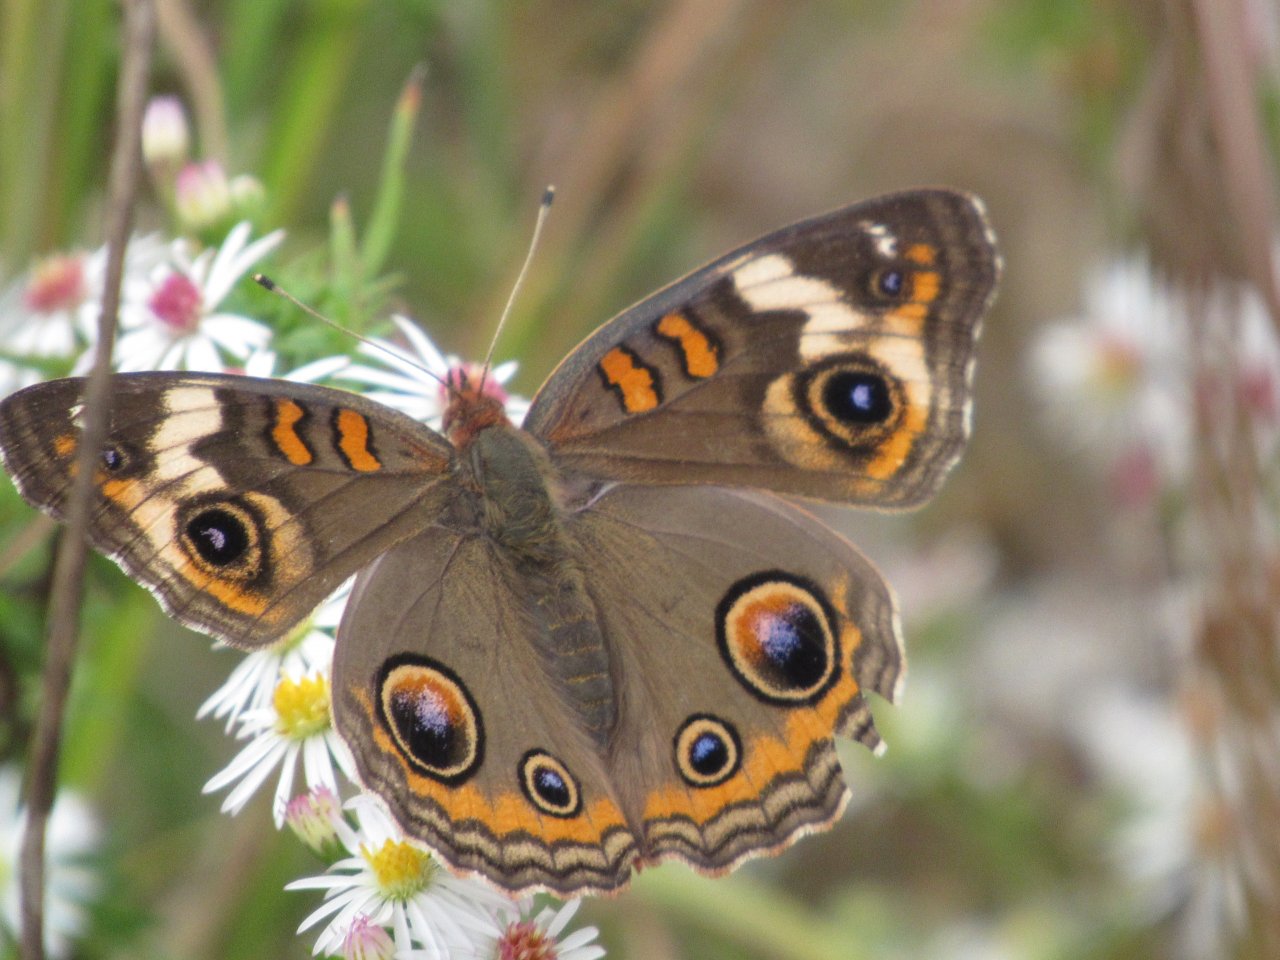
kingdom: Animalia
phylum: Arthropoda
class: Insecta
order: Lepidoptera
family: Nymphalidae
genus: Junonia
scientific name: Junonia coenia
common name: Common Buckeye
